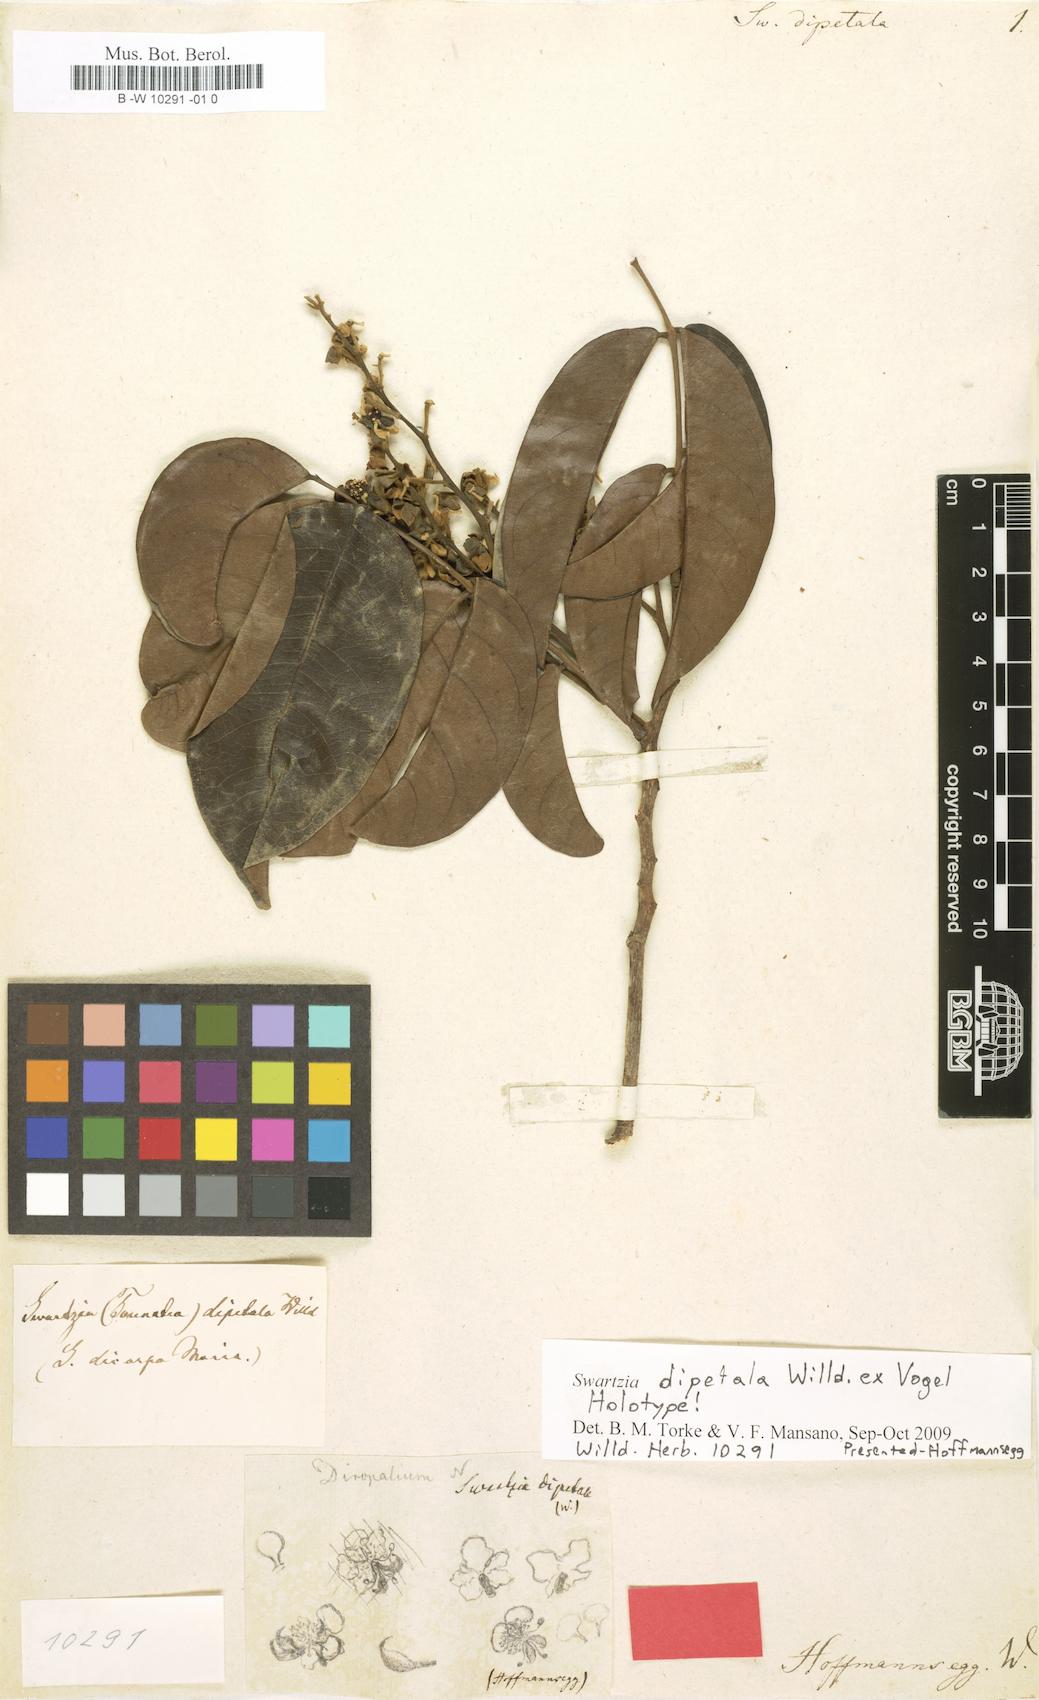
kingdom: Plantae
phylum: Tracheophyta
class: Magnoliopsida
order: Fabales
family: Fabaceae
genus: Swartzia
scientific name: Swartzia dipetala
